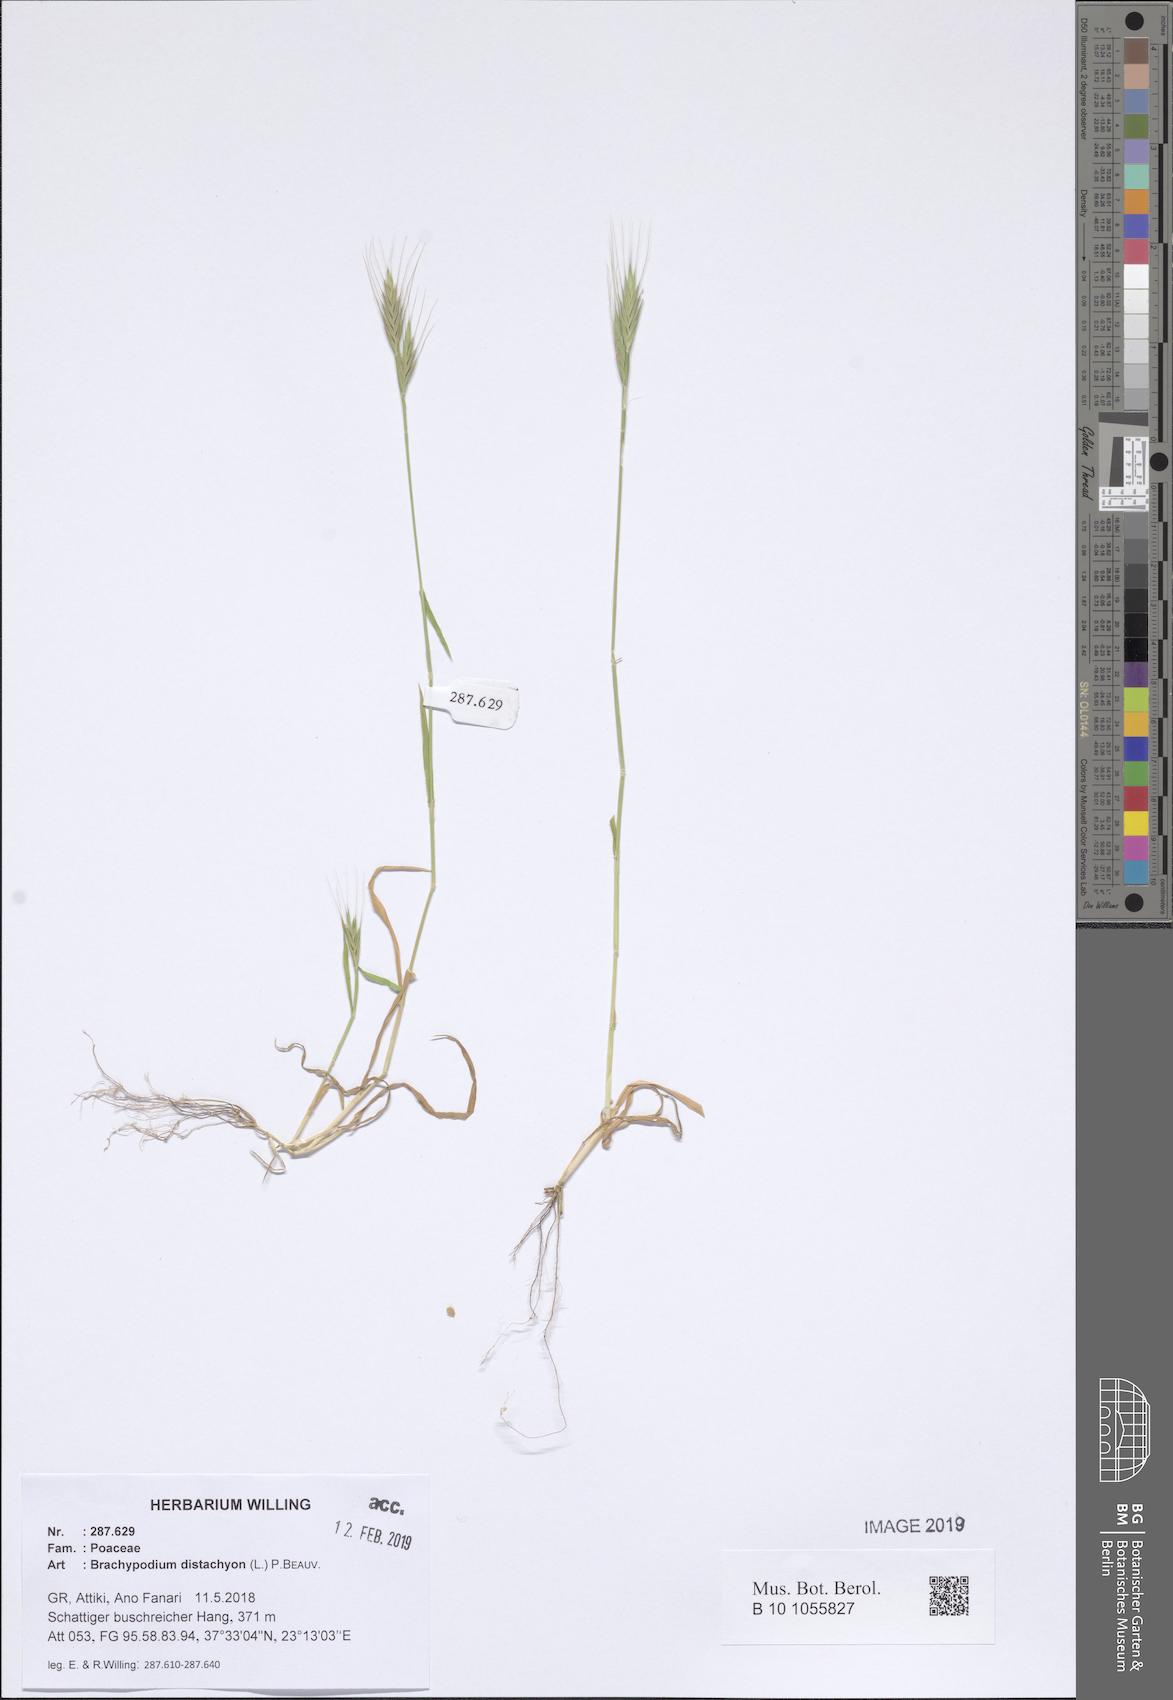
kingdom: Plantae
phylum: Tracheophyta
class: Liliopsida
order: Poales
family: Poaceae
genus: Brachypodium
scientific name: Brachypodium distachyon
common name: Stiff brome
